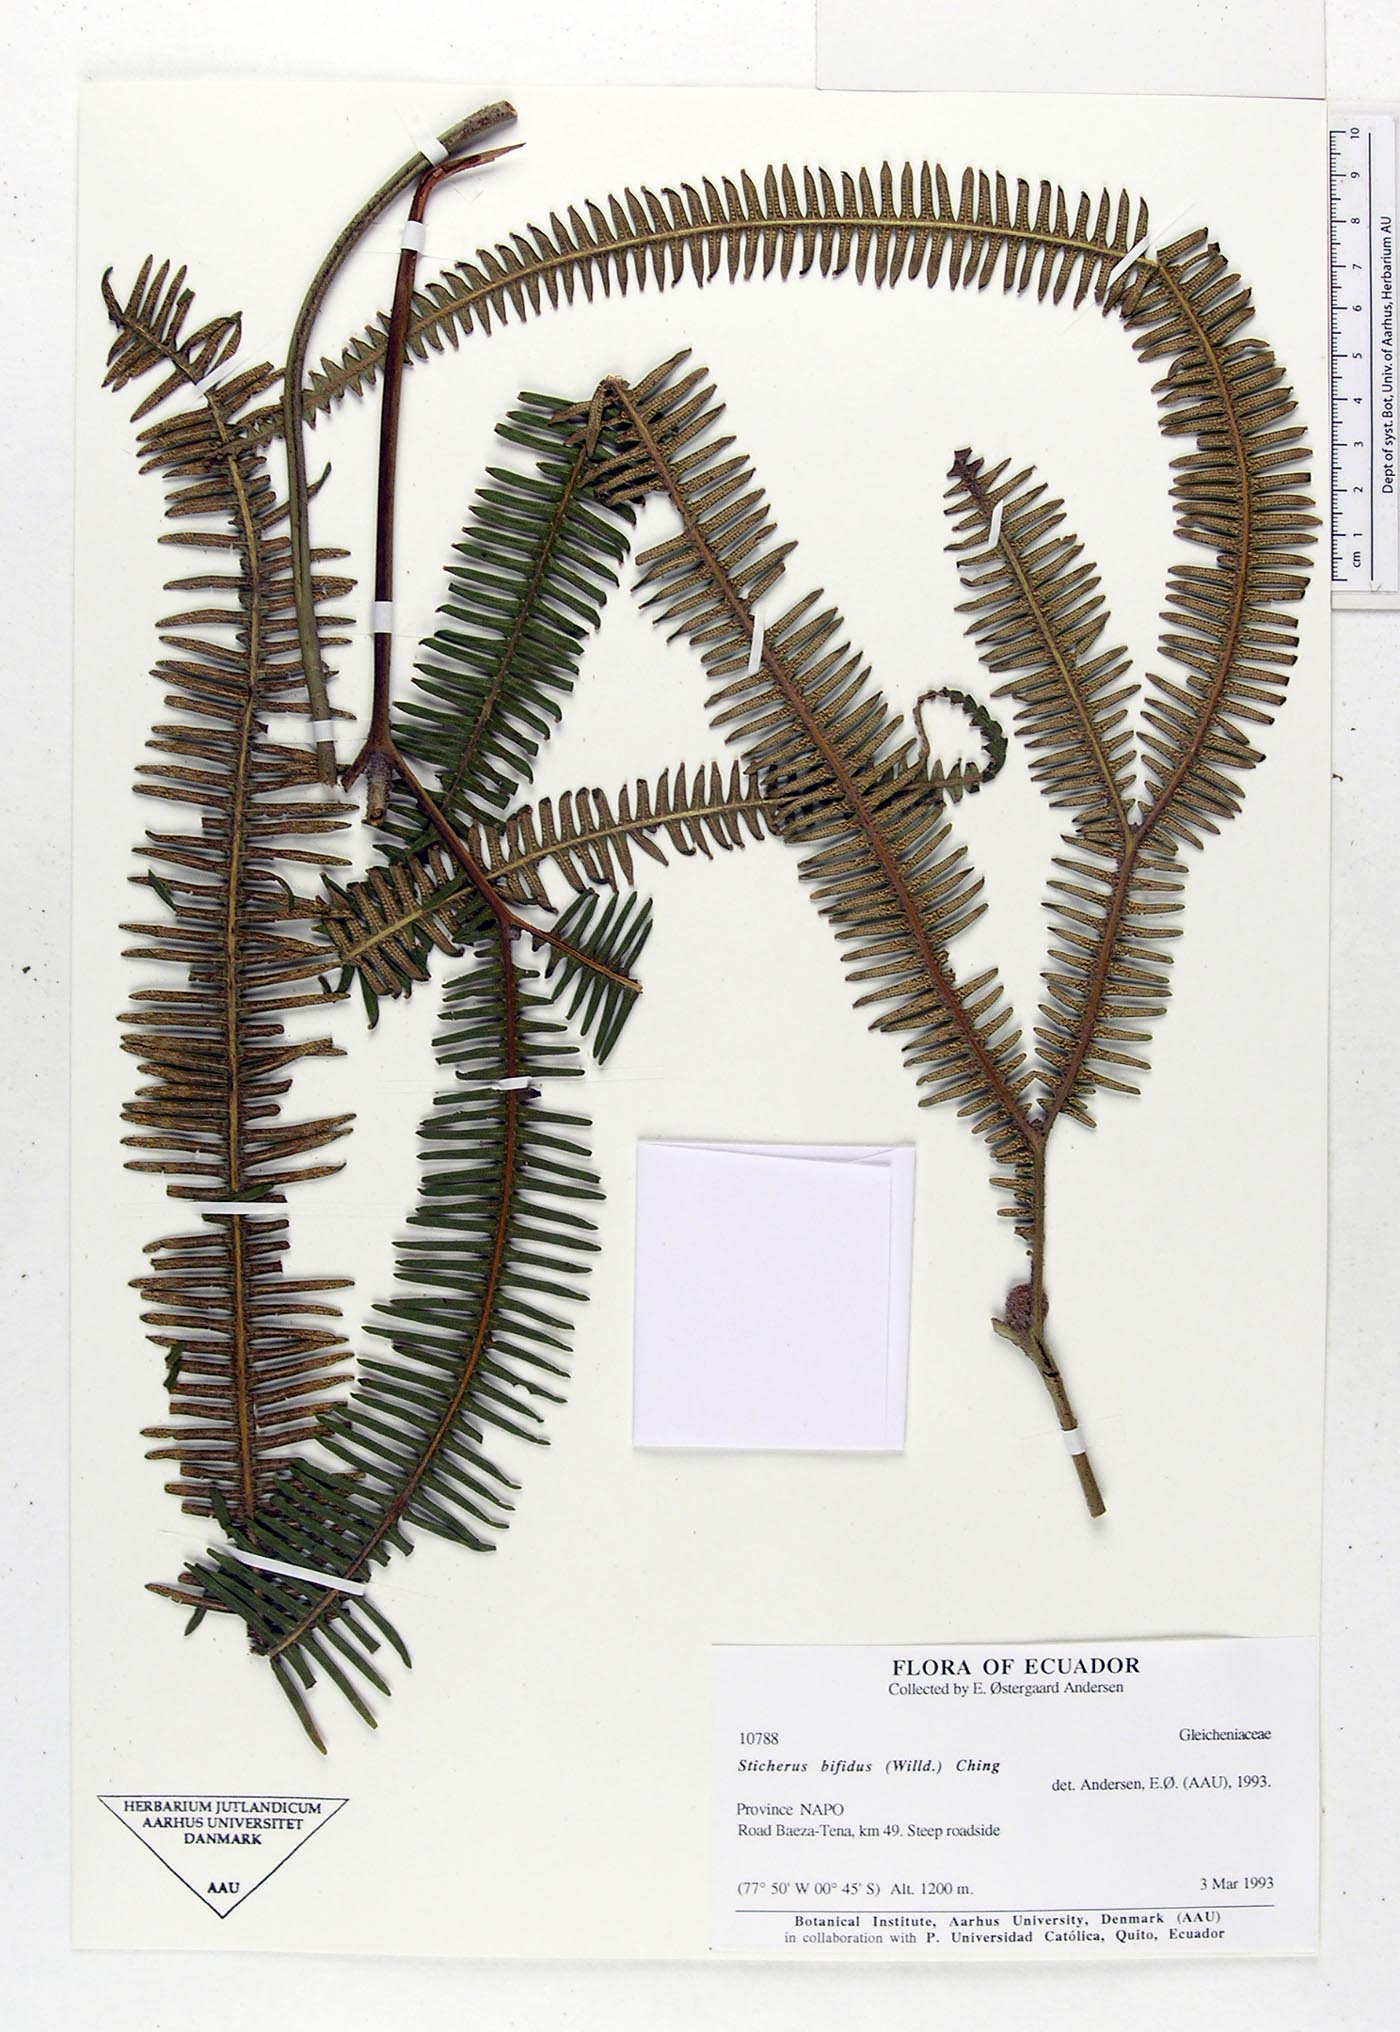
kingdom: Plantae
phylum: Tracheophyta
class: Polypodiopsida
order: Gleicheniales
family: Gleicheniaceae
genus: Sticherus
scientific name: Sticherus bifidus
